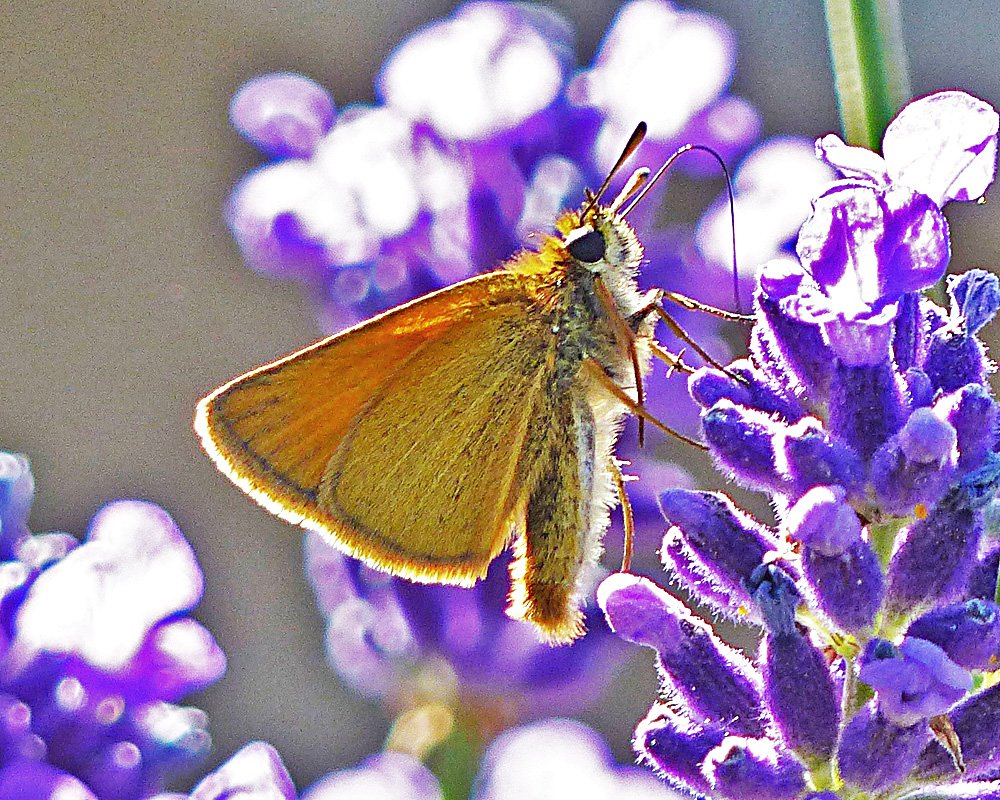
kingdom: Animalia
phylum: Arthropoda
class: Insecta
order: Lepidoptera
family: Hesperiidae
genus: Thymelicus
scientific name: Thymelicus lineola
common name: European Skipper
